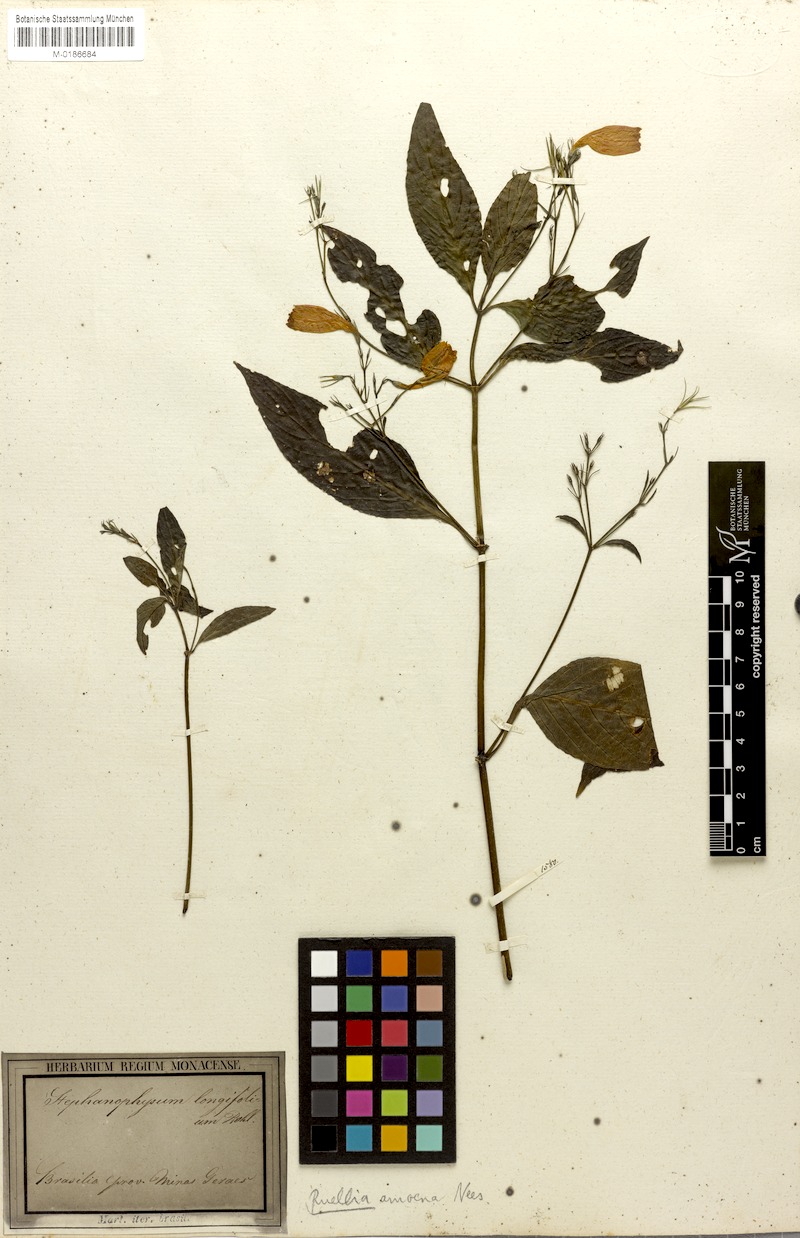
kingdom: Plantae
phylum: Tracheophyta
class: Magnoliopsida
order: Lamiales
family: Acanthaceae
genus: Ruellia
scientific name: Ruellia brevifolia
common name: Tropical wild petunia
